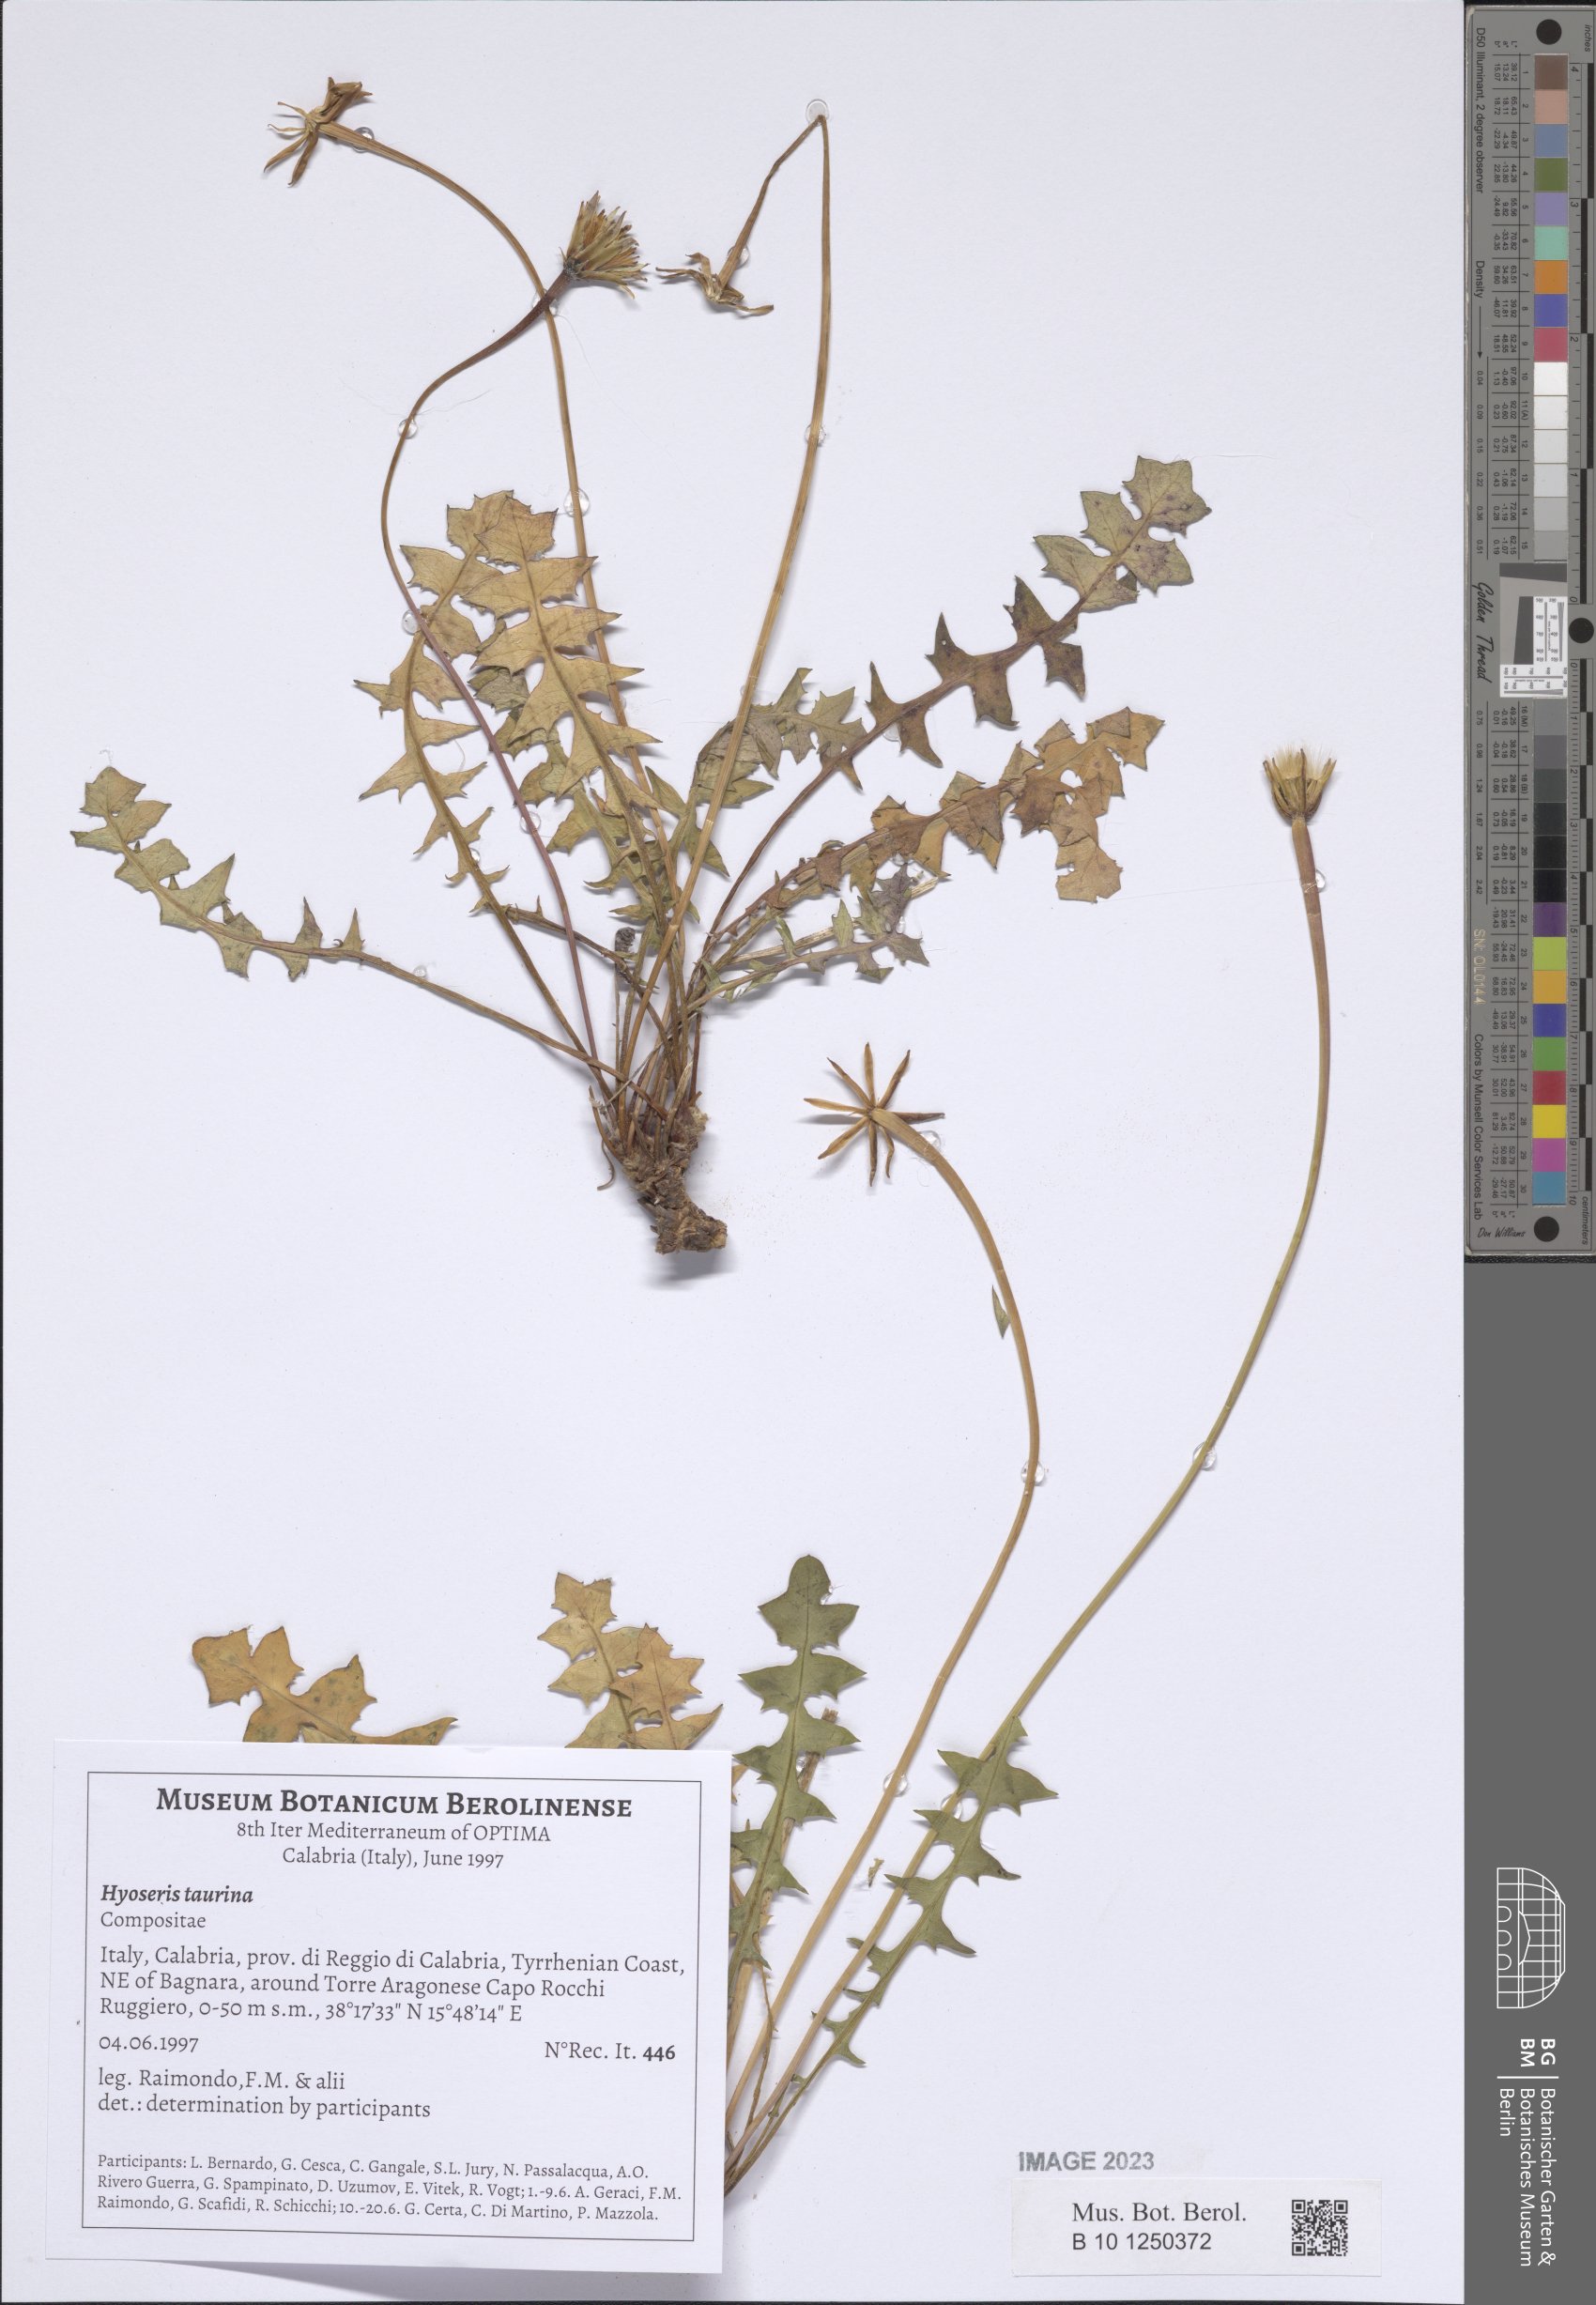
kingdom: Plantae
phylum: Tracheophyta
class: Magnoliopsida
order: Asterales
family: Asteraceae
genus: Hyoseris
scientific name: Hyoseris lucida
